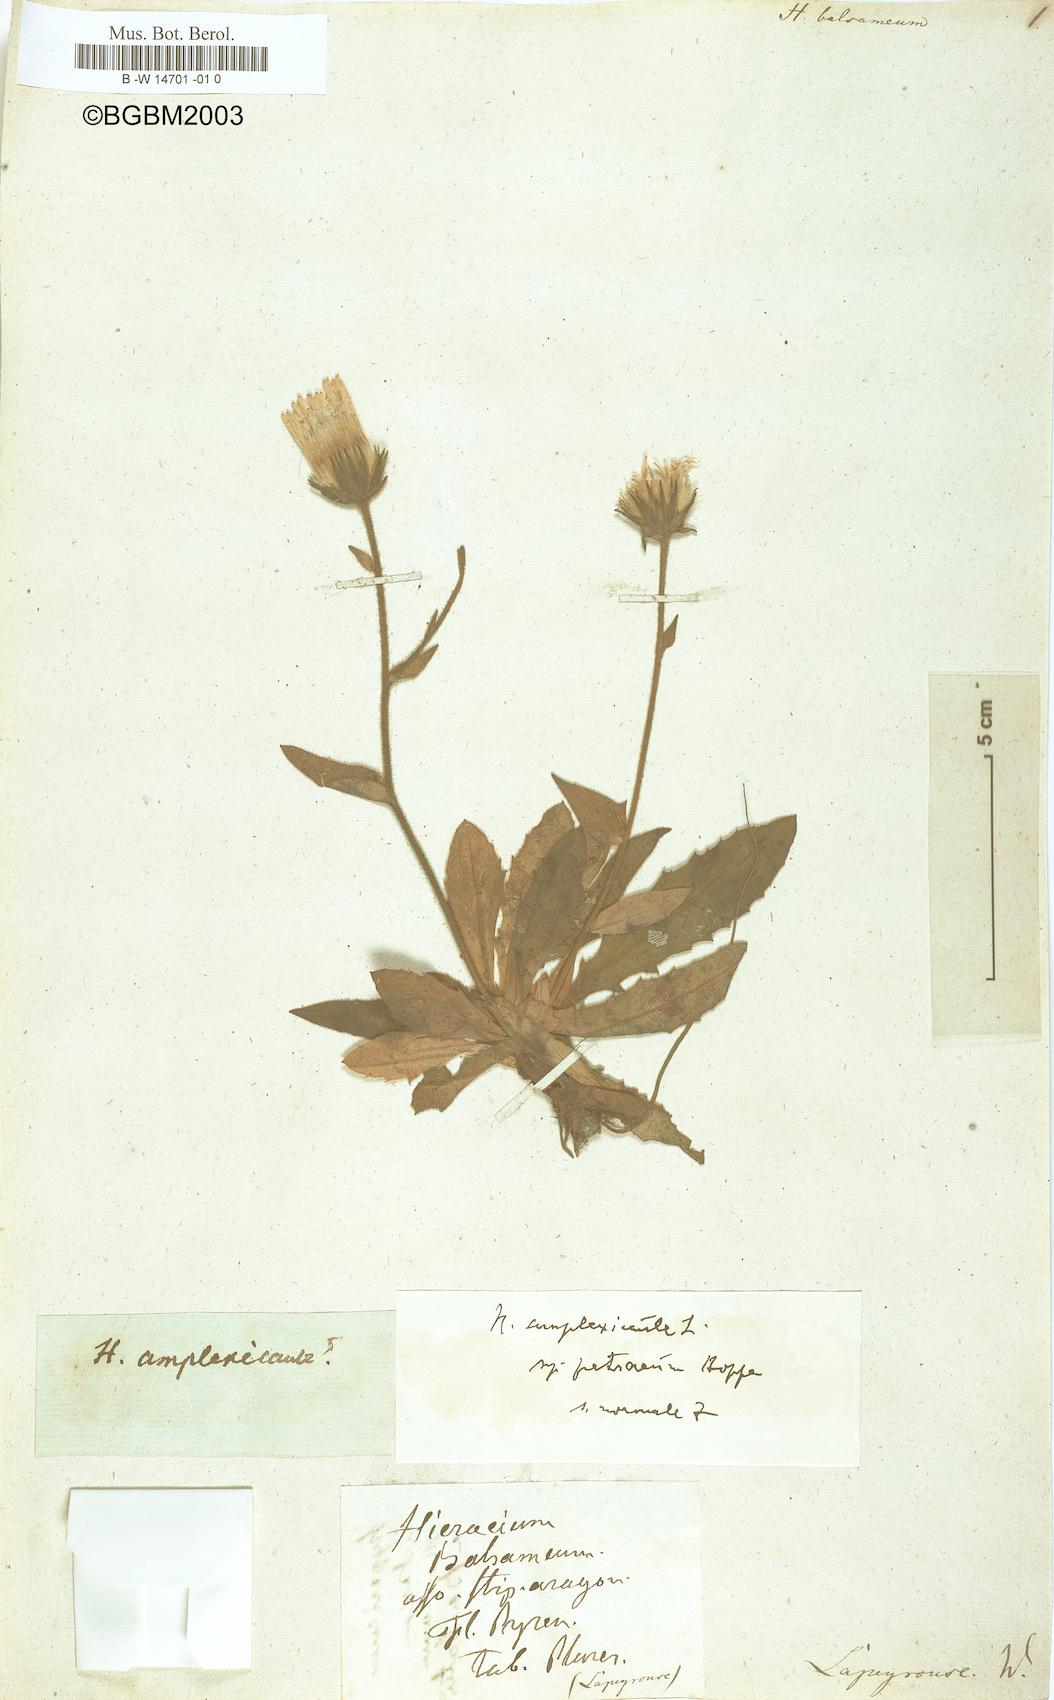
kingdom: Plantae
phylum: Tracheophyta
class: Magnoliopsida
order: Asterales
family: Asteraceae
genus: Hieracium
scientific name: Hieracium amplexicaule
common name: Sticky hawkweed
